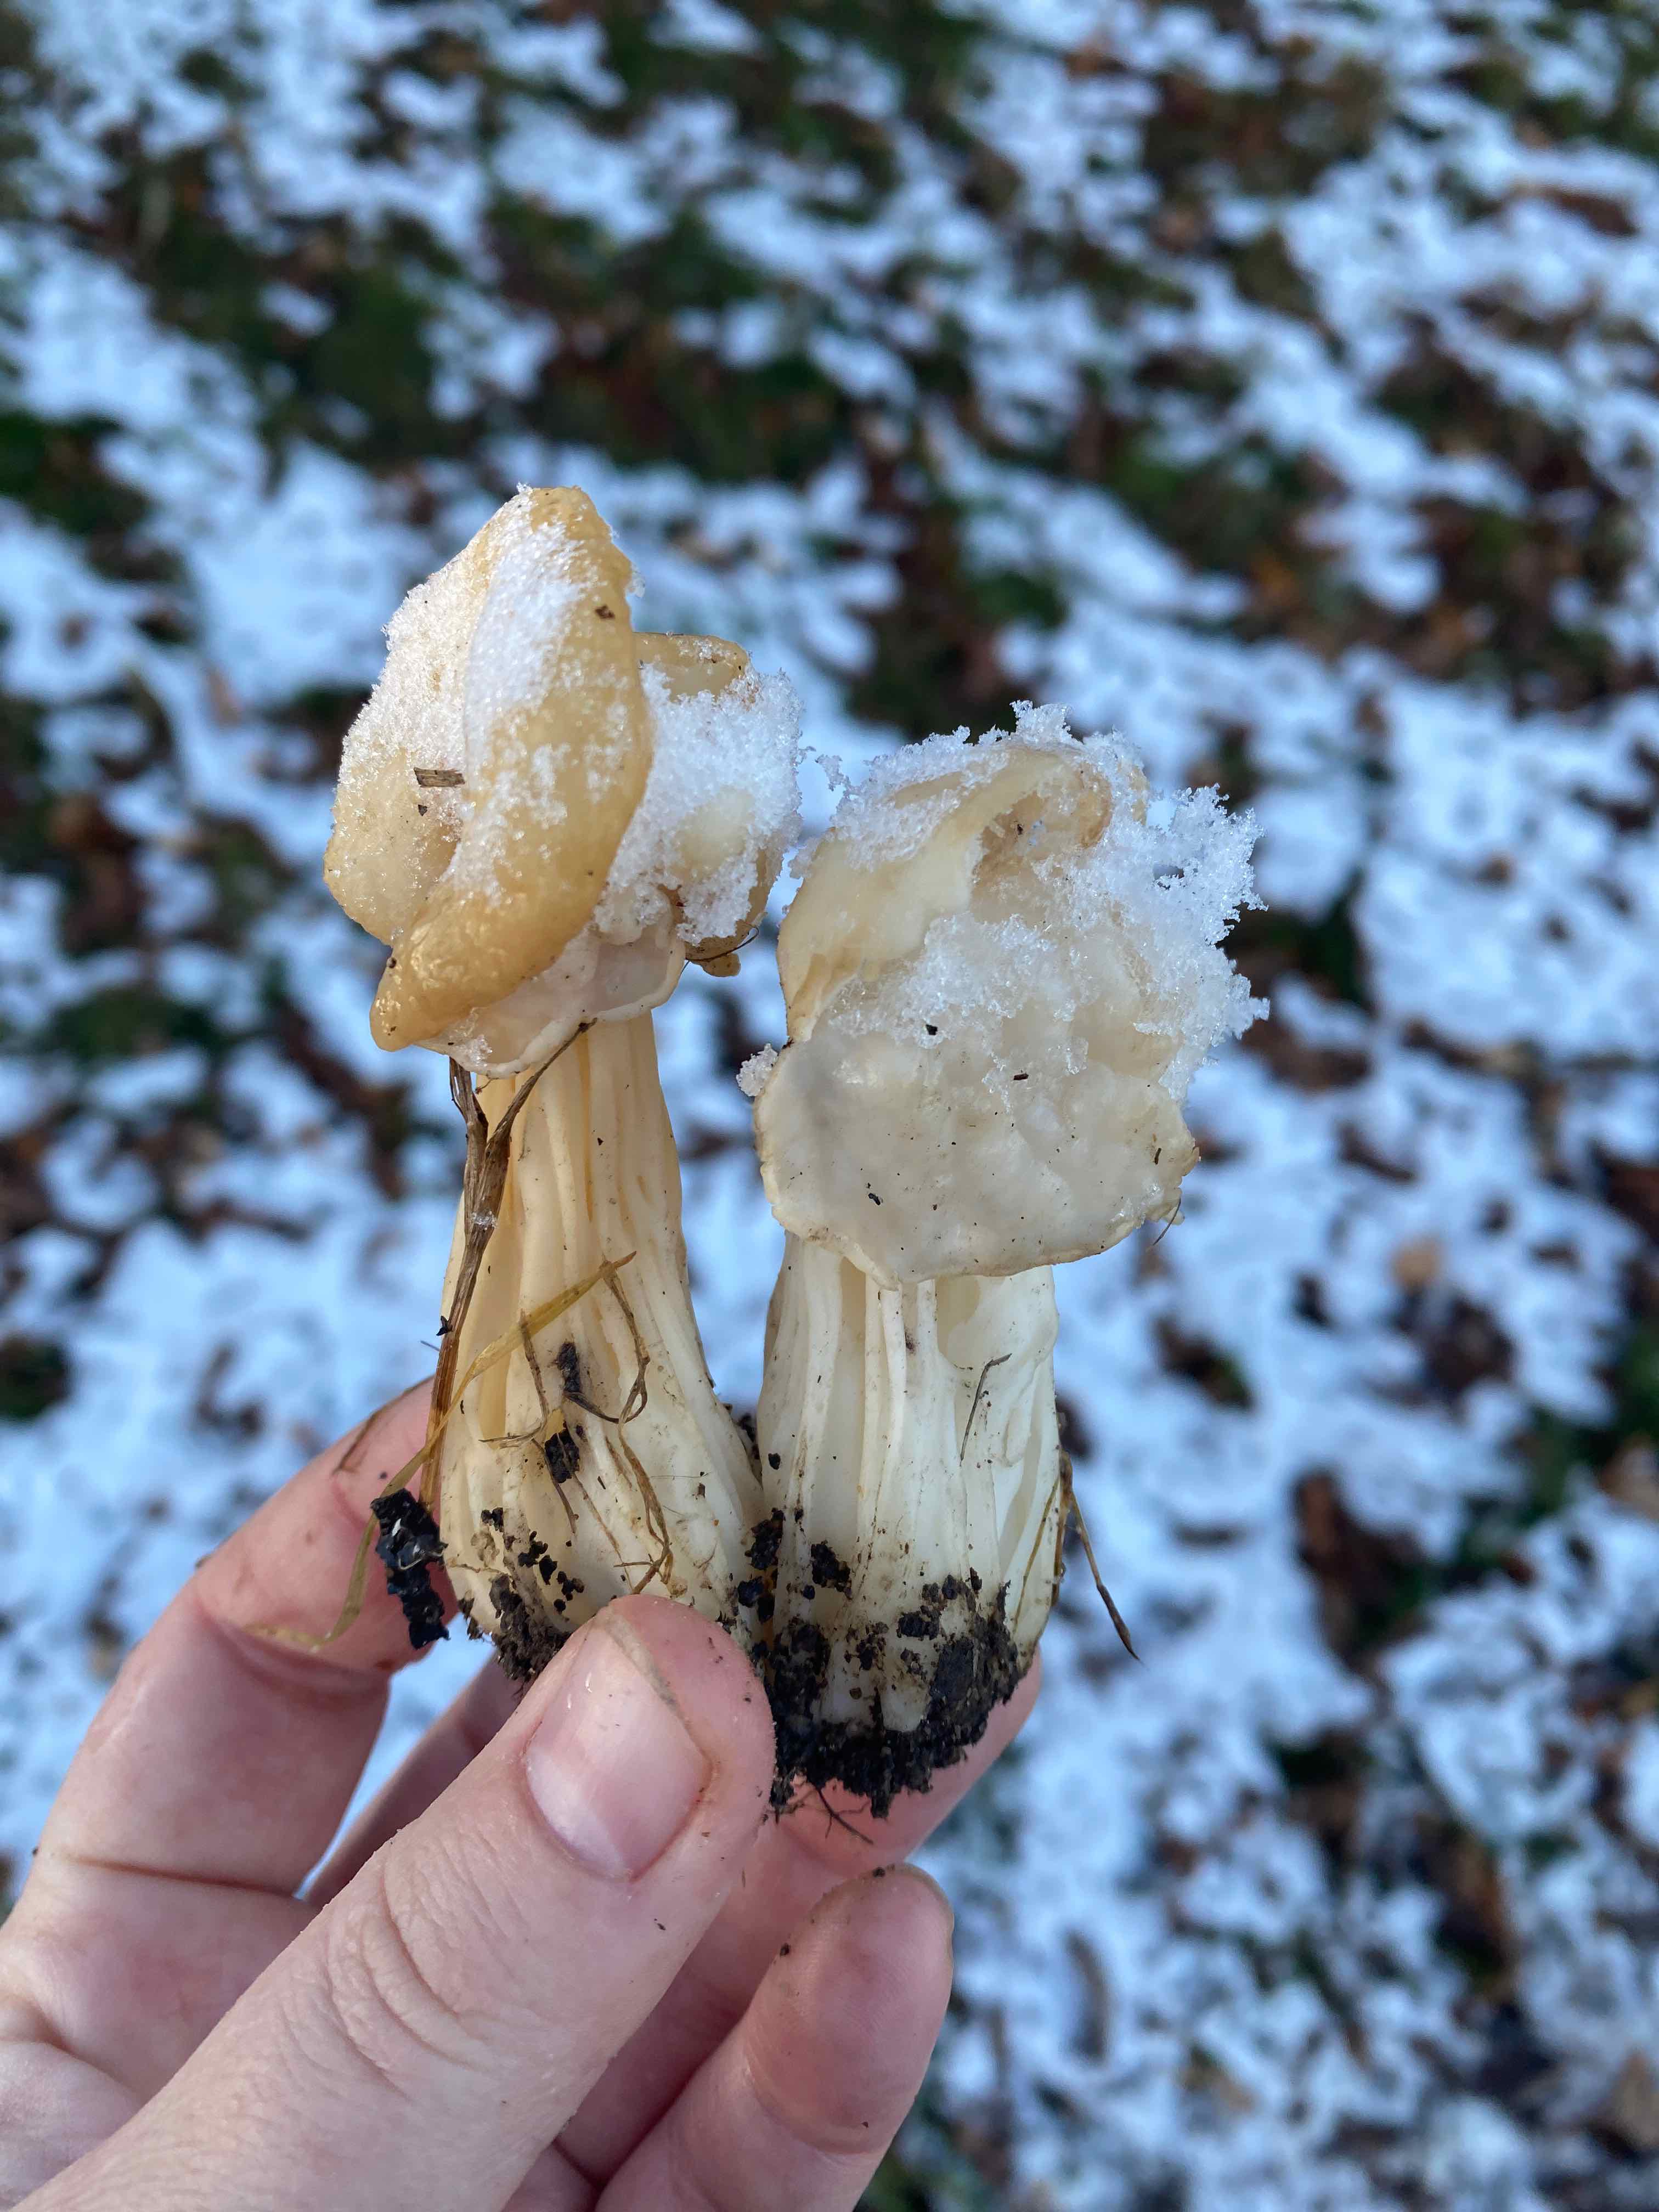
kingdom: Fungi
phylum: Ascomycota
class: Pezizomycetes
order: Pezizales
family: Helvellaceae
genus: Helvella
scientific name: Helvella crispa
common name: kruset foldhat
